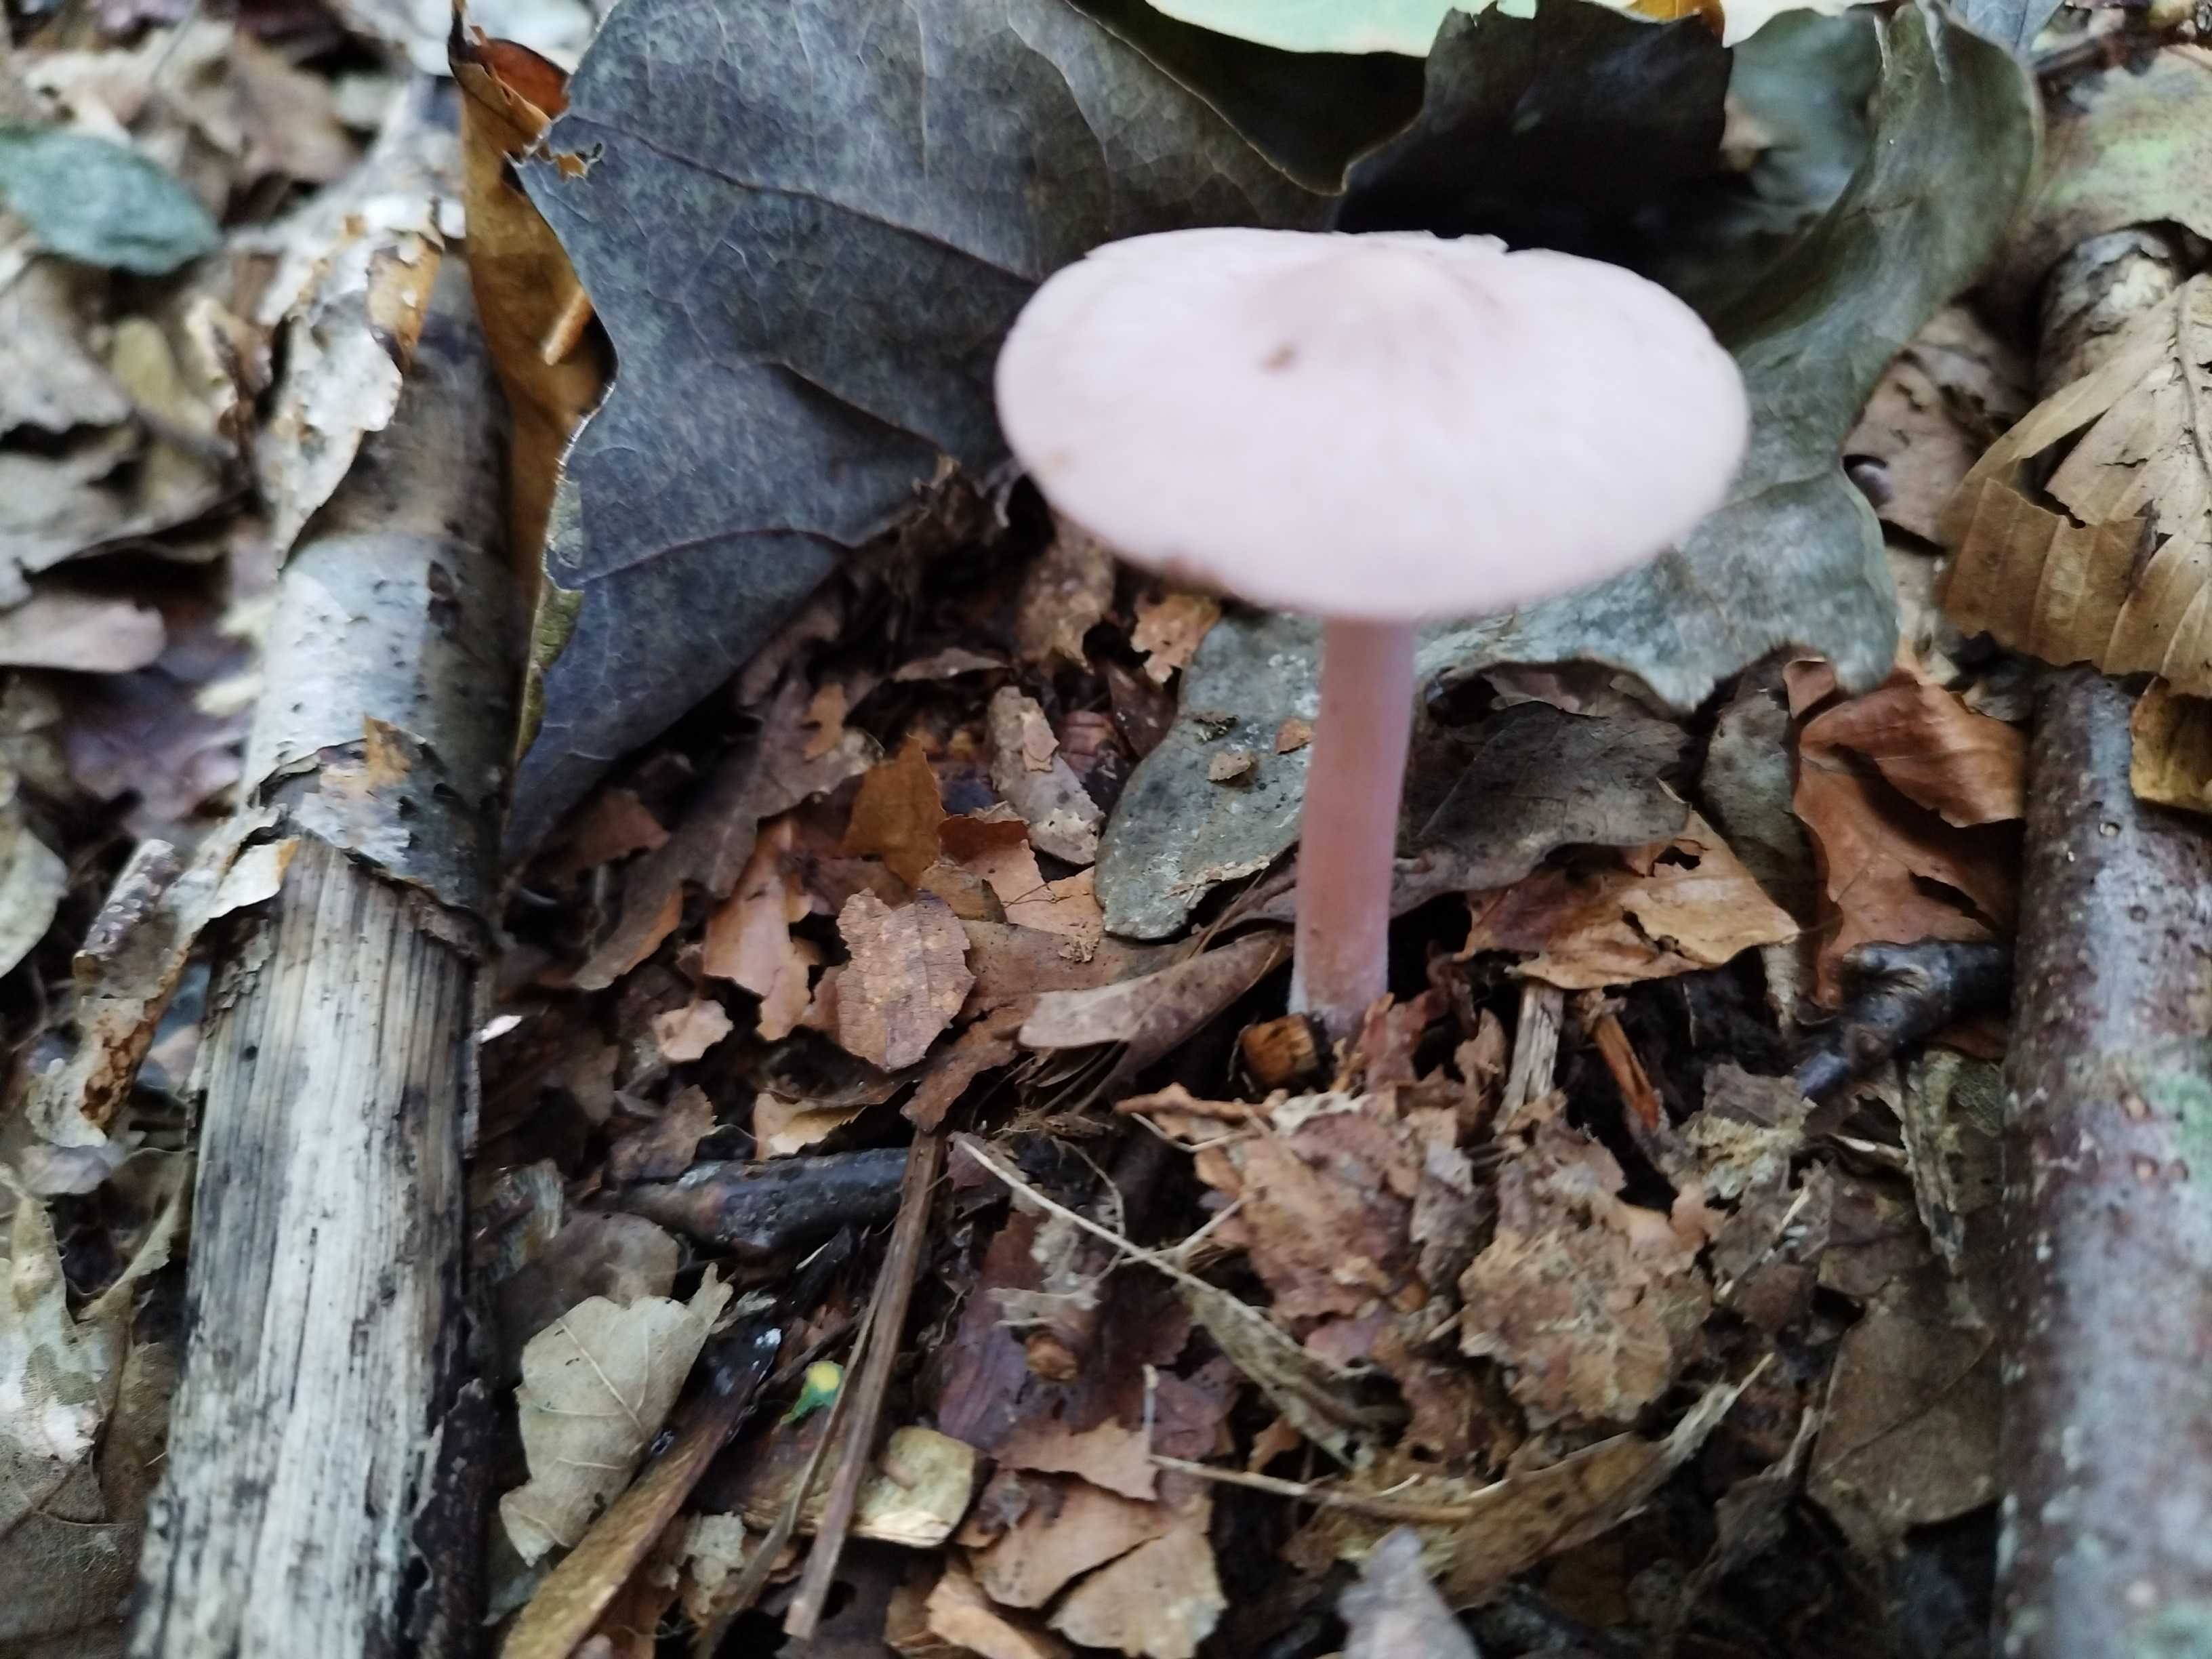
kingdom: Fungi
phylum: Basidiomycota
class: Agaricomycetes
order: Agaricales
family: Mycenaceae
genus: Mycena
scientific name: Mycena rosea
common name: rosa huesvamp
